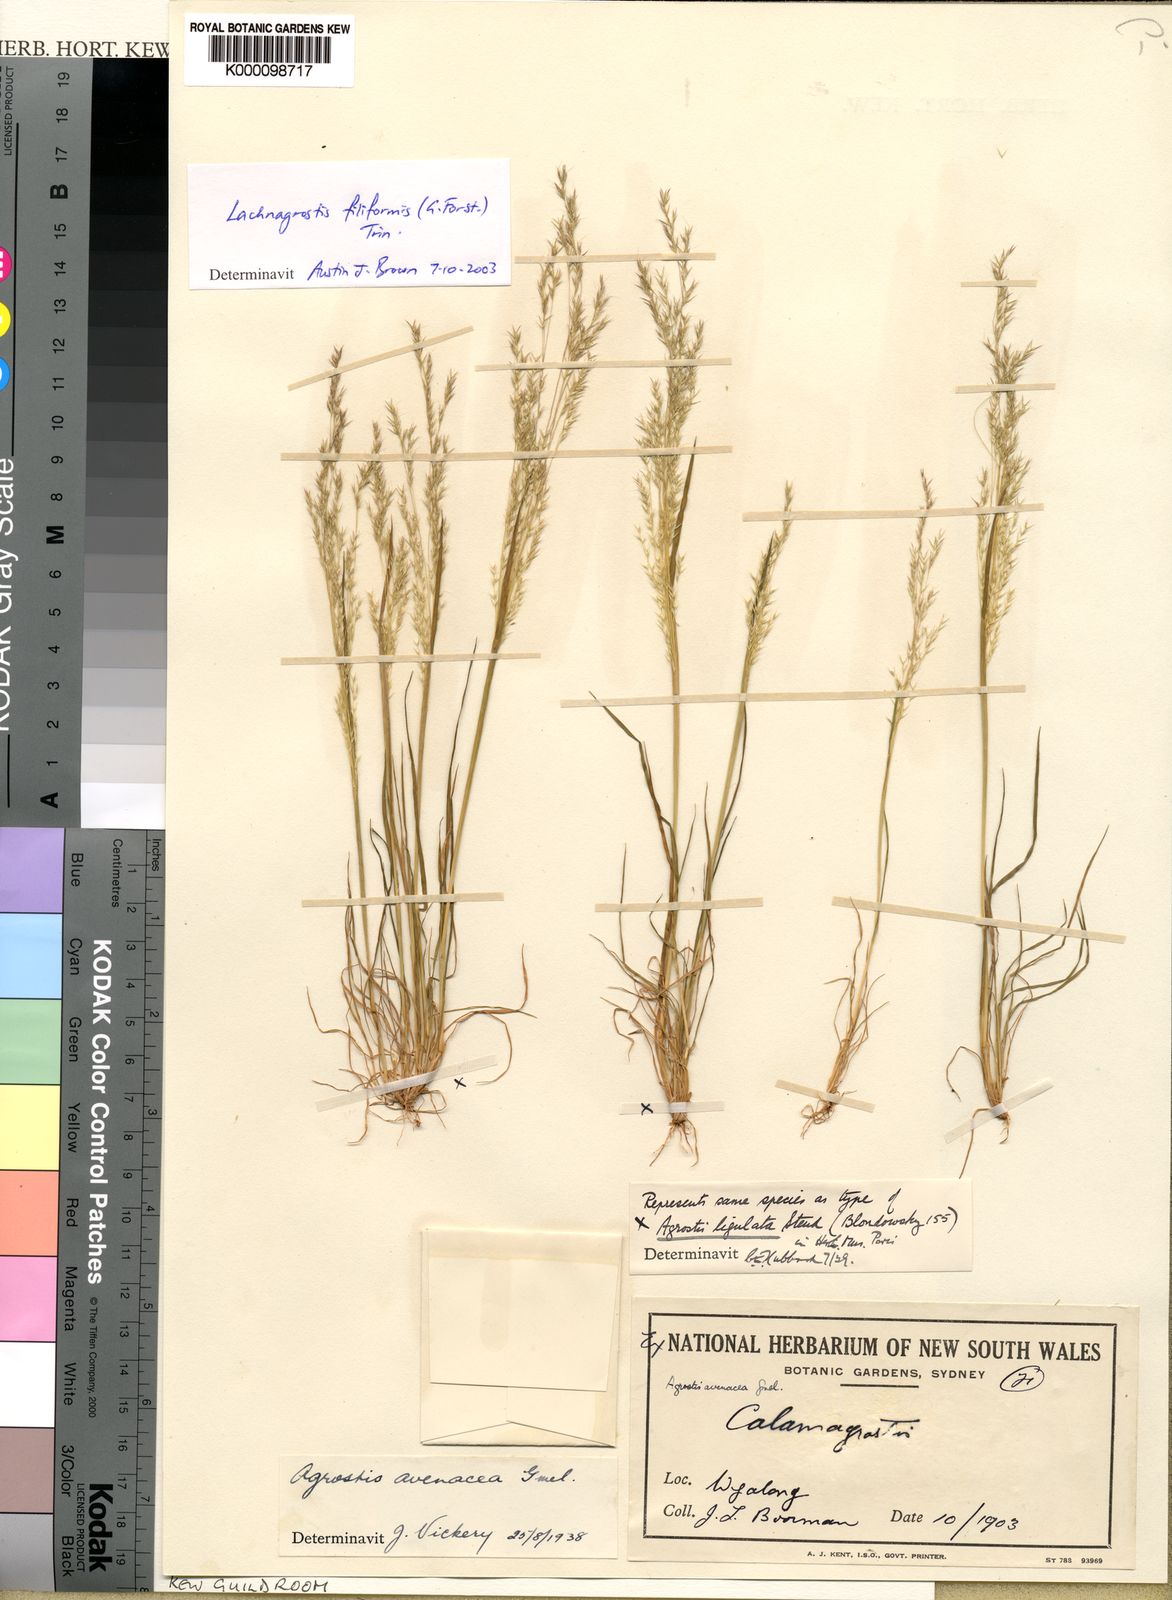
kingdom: Plantae
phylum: Tracheophyta
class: Liliopsida
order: Poales
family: Poaceae
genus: Lachnagrostis
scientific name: Lachnagrostis filiformis
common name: Bentgrass
